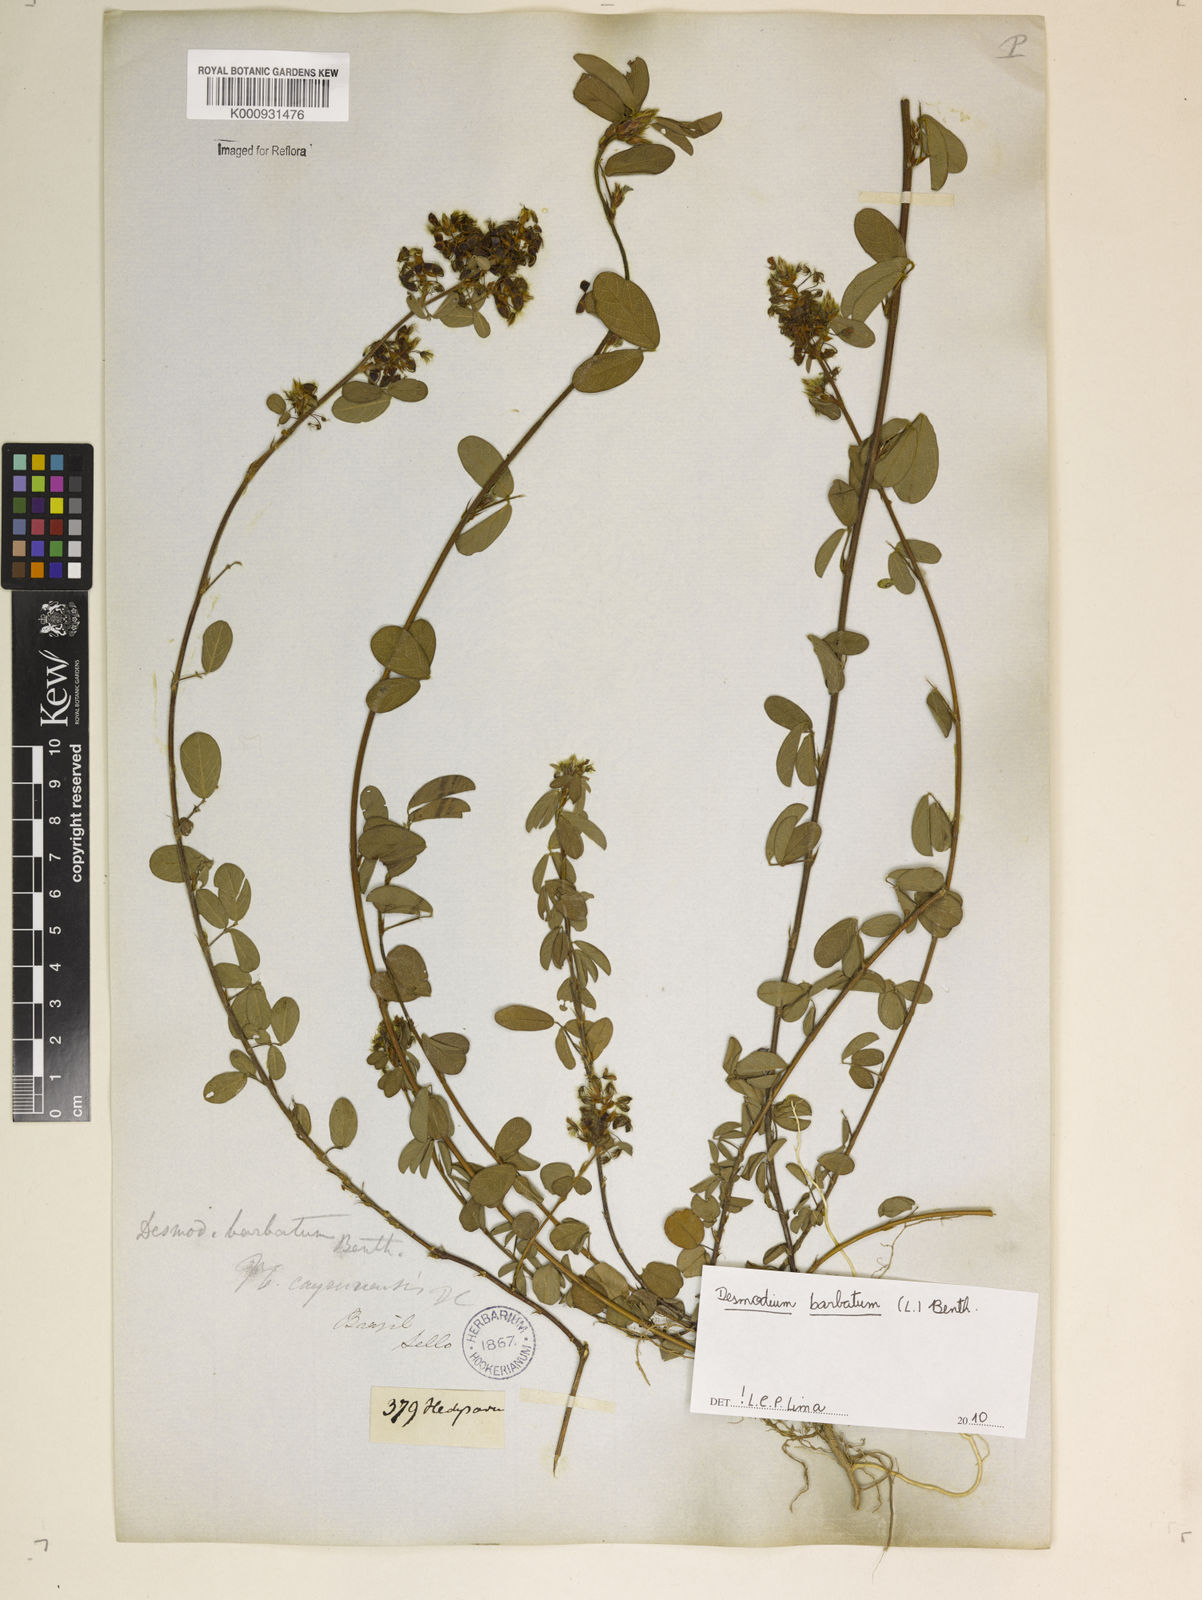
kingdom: Plantae
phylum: Tracheophyta
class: Magnoliopsida
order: Fabales
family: Fabaceae
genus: Grona
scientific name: Grona barbata
